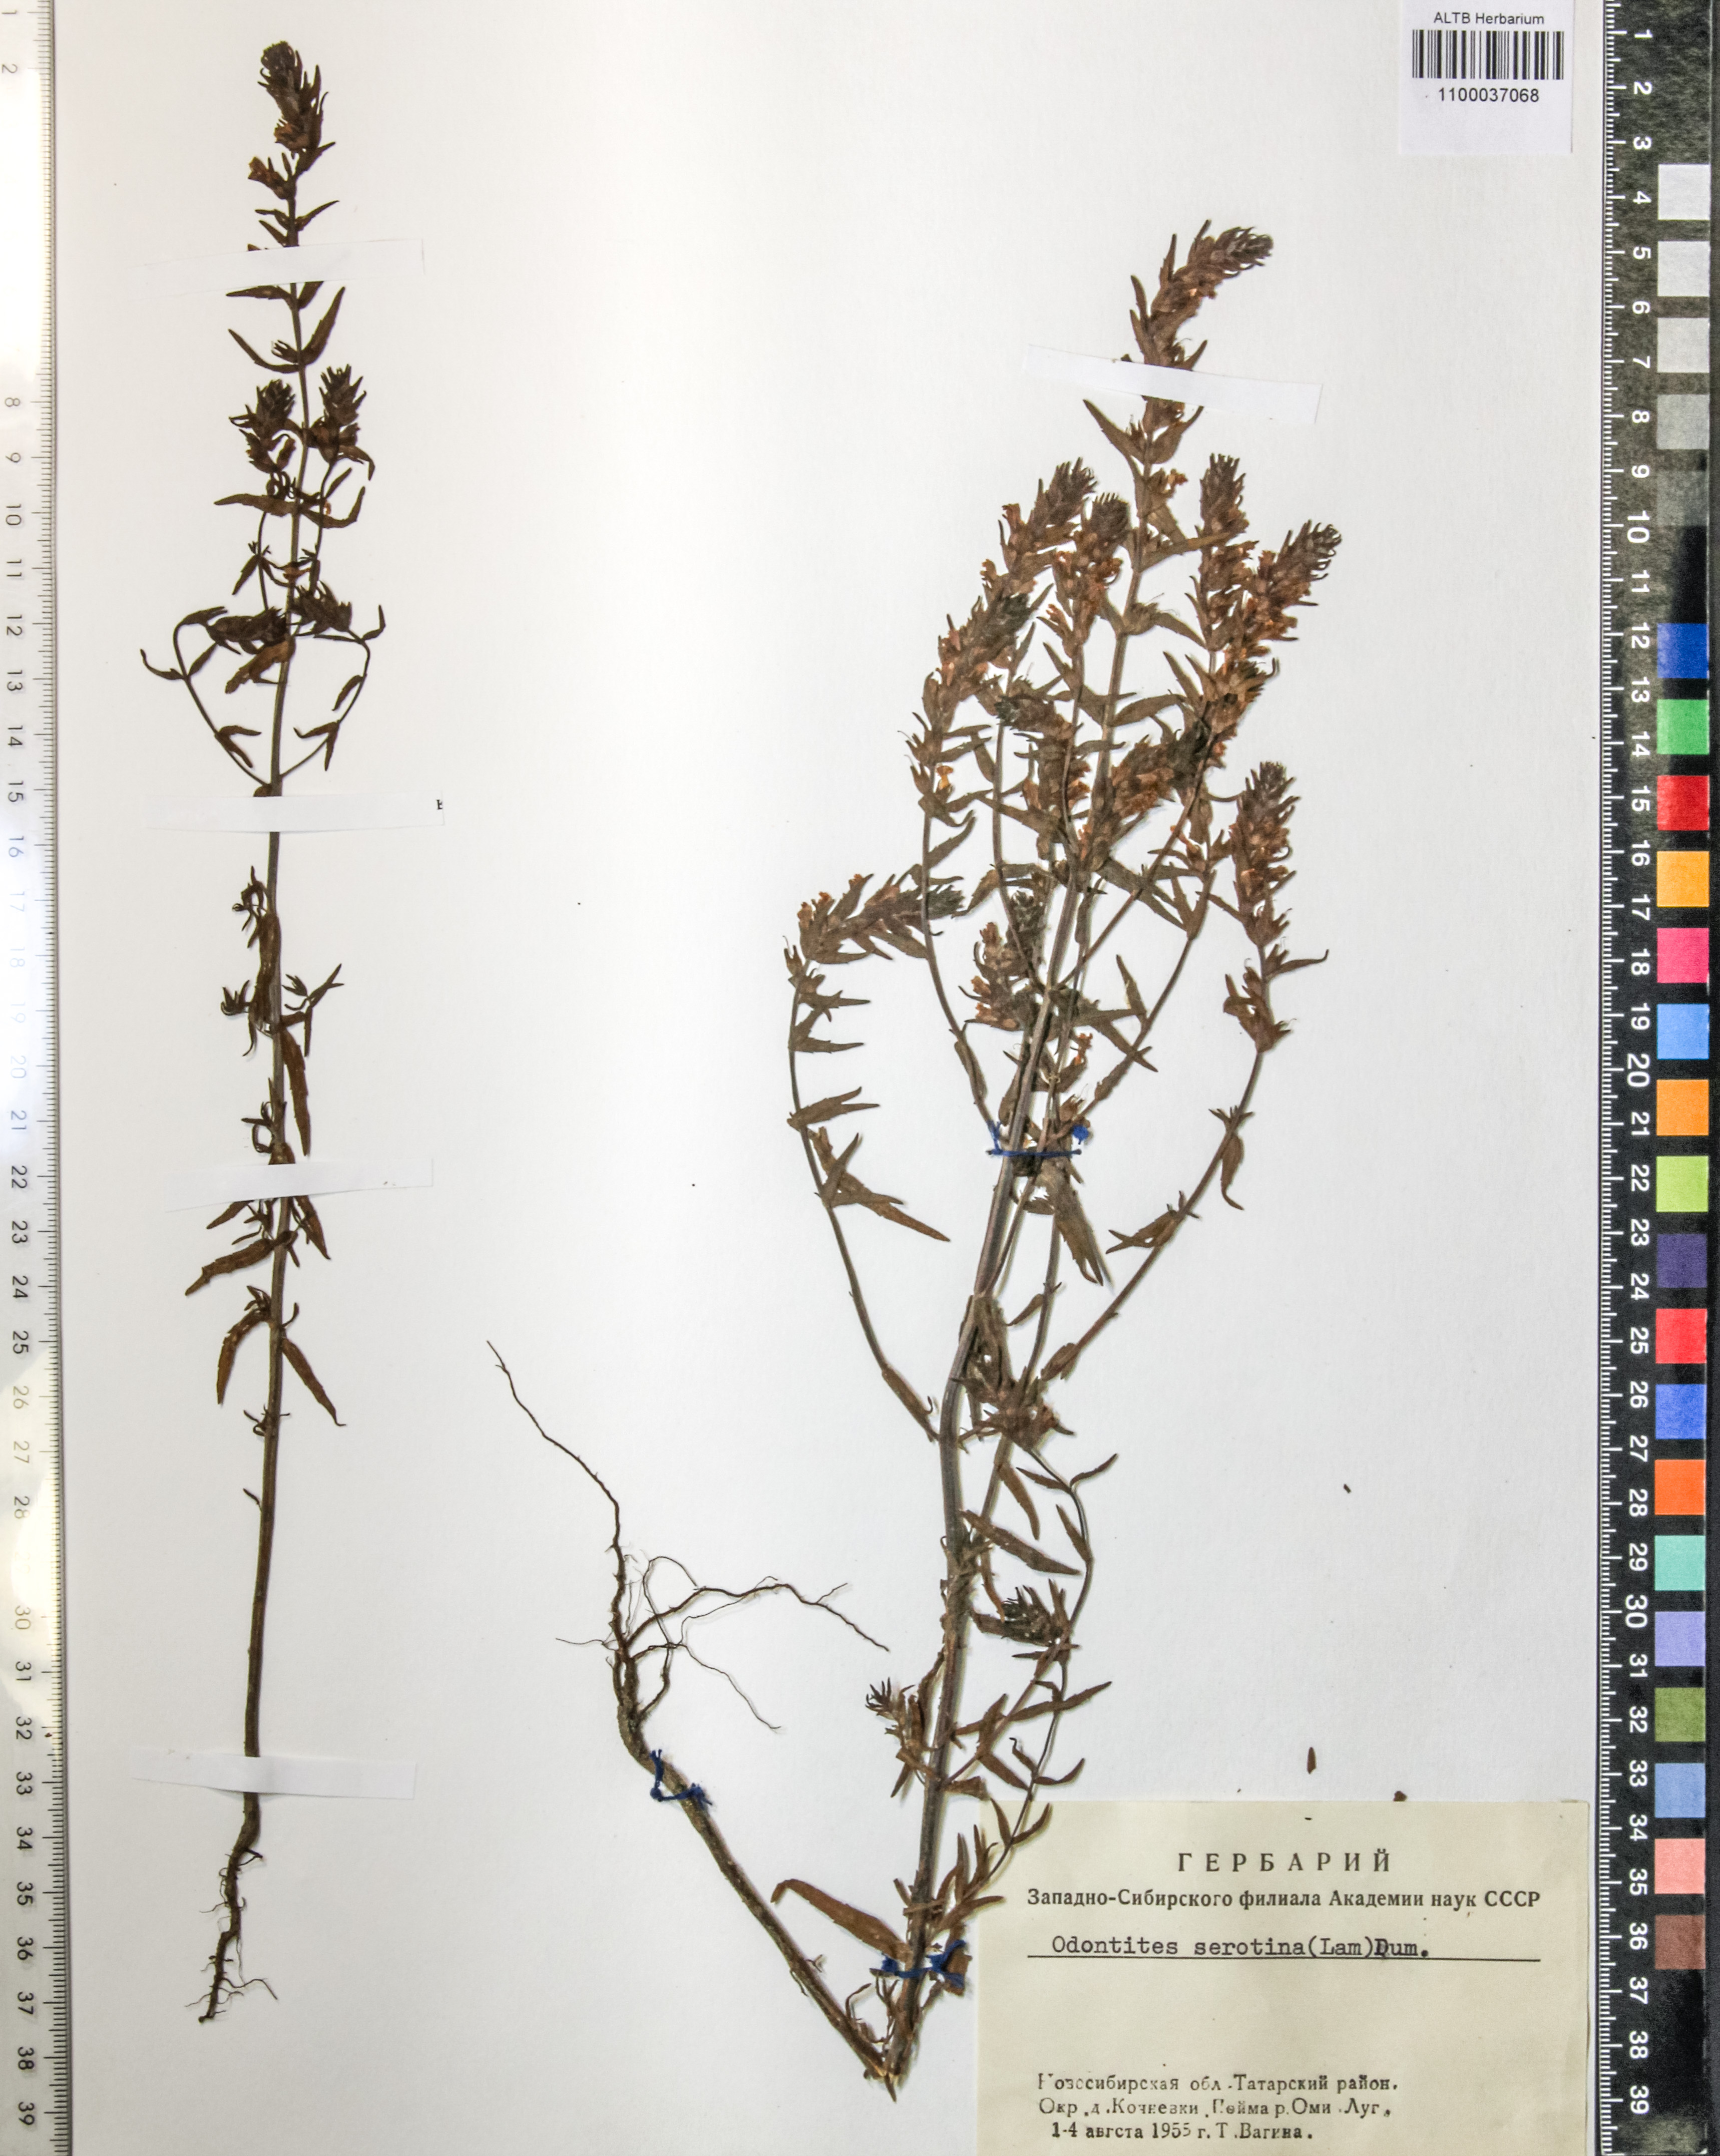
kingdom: Plantae
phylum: Tracheophyta
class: Magnoliopsida
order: Lamiales
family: Orobanchaceae
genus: Odontites
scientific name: Odontites vulgaris
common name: Broomrape
